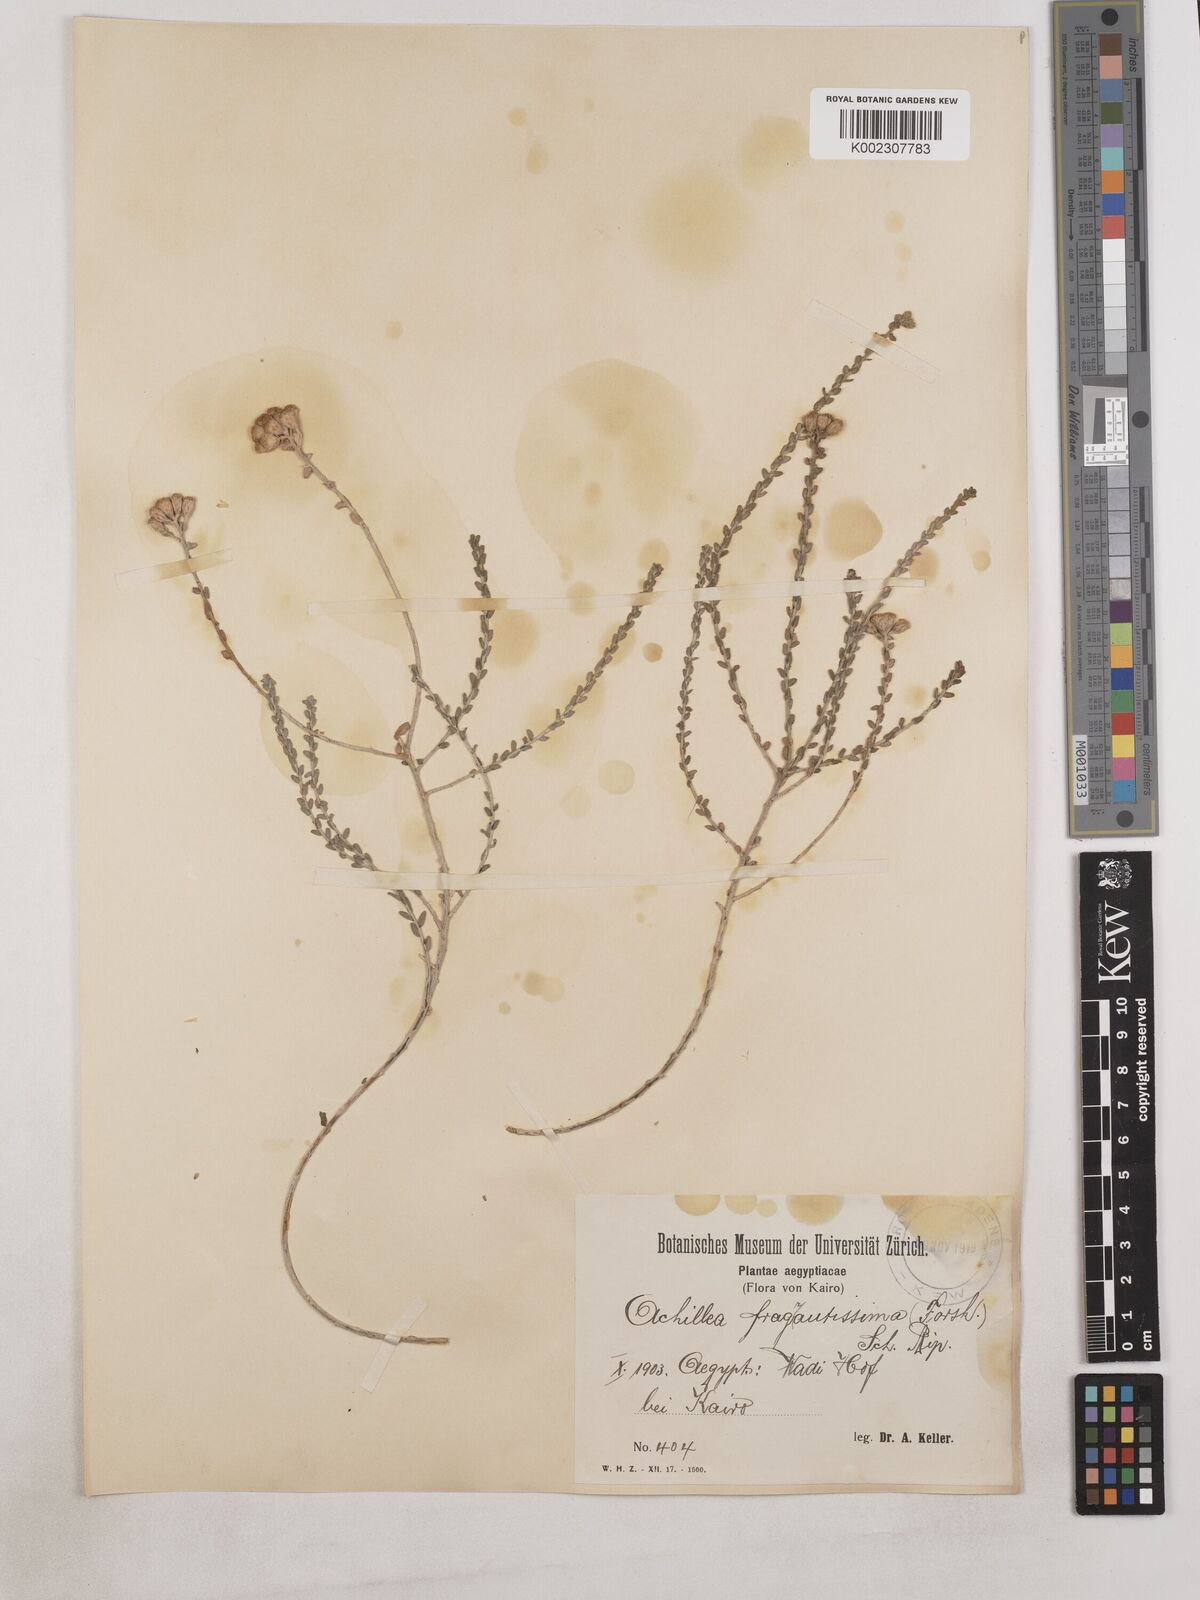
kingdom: Plantae
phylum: Tracheophyta
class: Magnoliopsida
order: Asterales
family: Asteraceae
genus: Achillea
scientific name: Achillea fragrantissima
